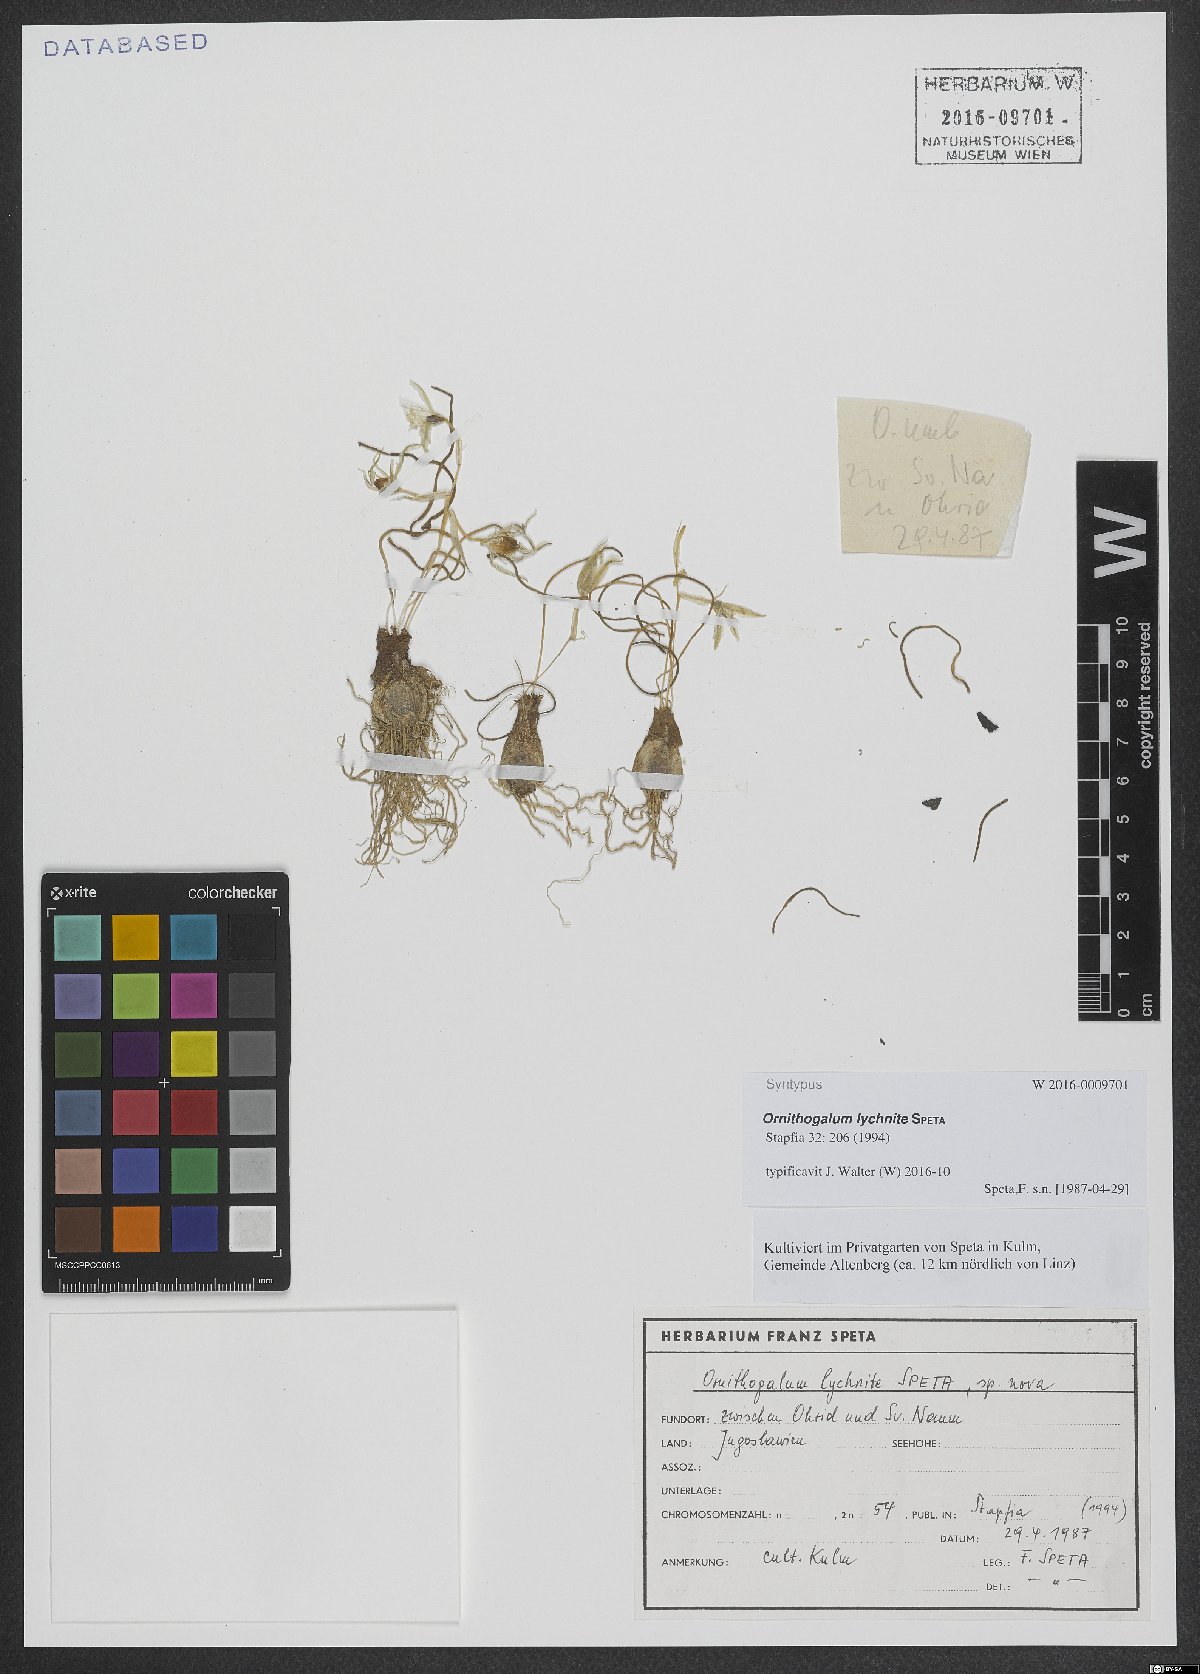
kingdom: Plantae
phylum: Tracheophyta
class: Liliopsida
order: Asparagales
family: Asparagaceae
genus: Ornithogalum
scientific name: Ornithogalum lychnite
